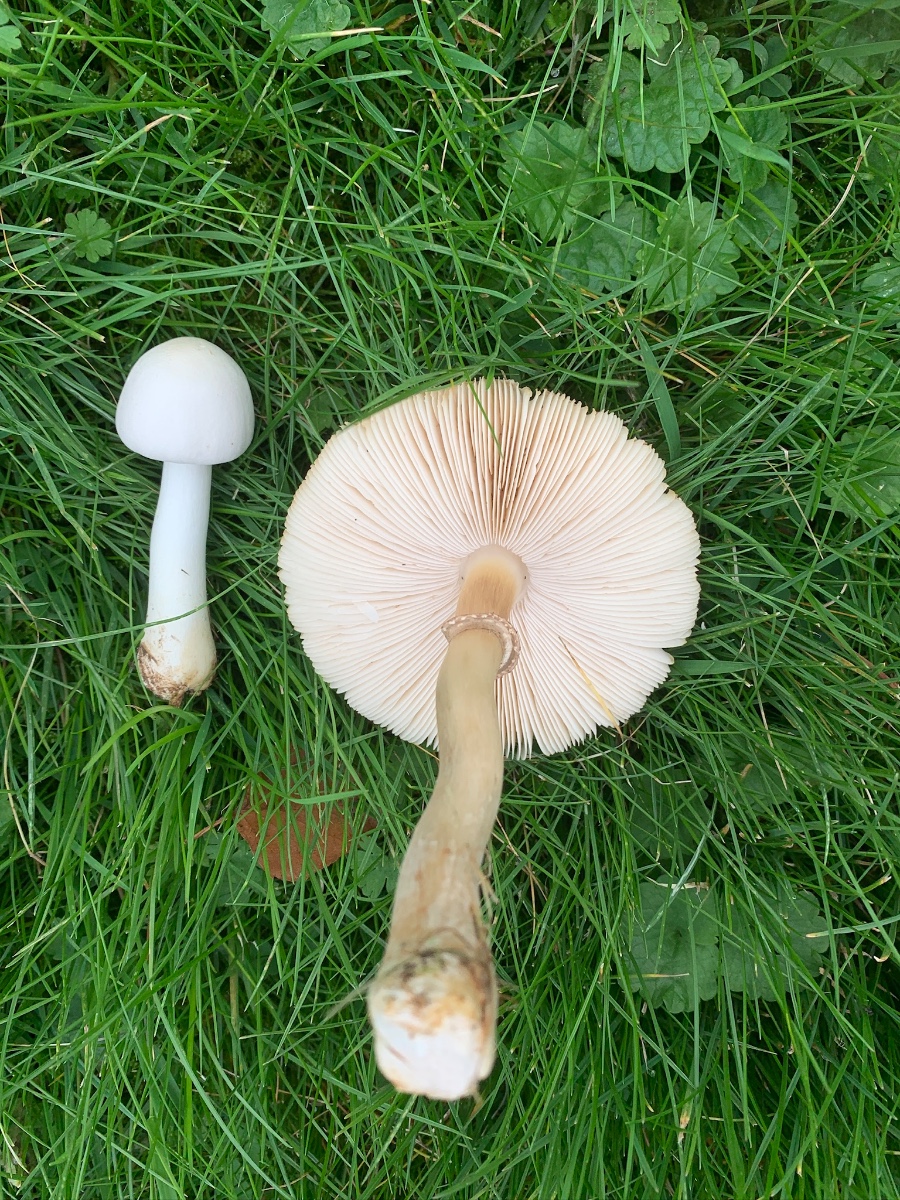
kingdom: Fungi
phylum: Basidiomycota
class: Agaricomycetes
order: Agaricales
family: Agaricaceae
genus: Leucoagaricus
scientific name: Leucoagaricus leucothites
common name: rosabladet silkehat
